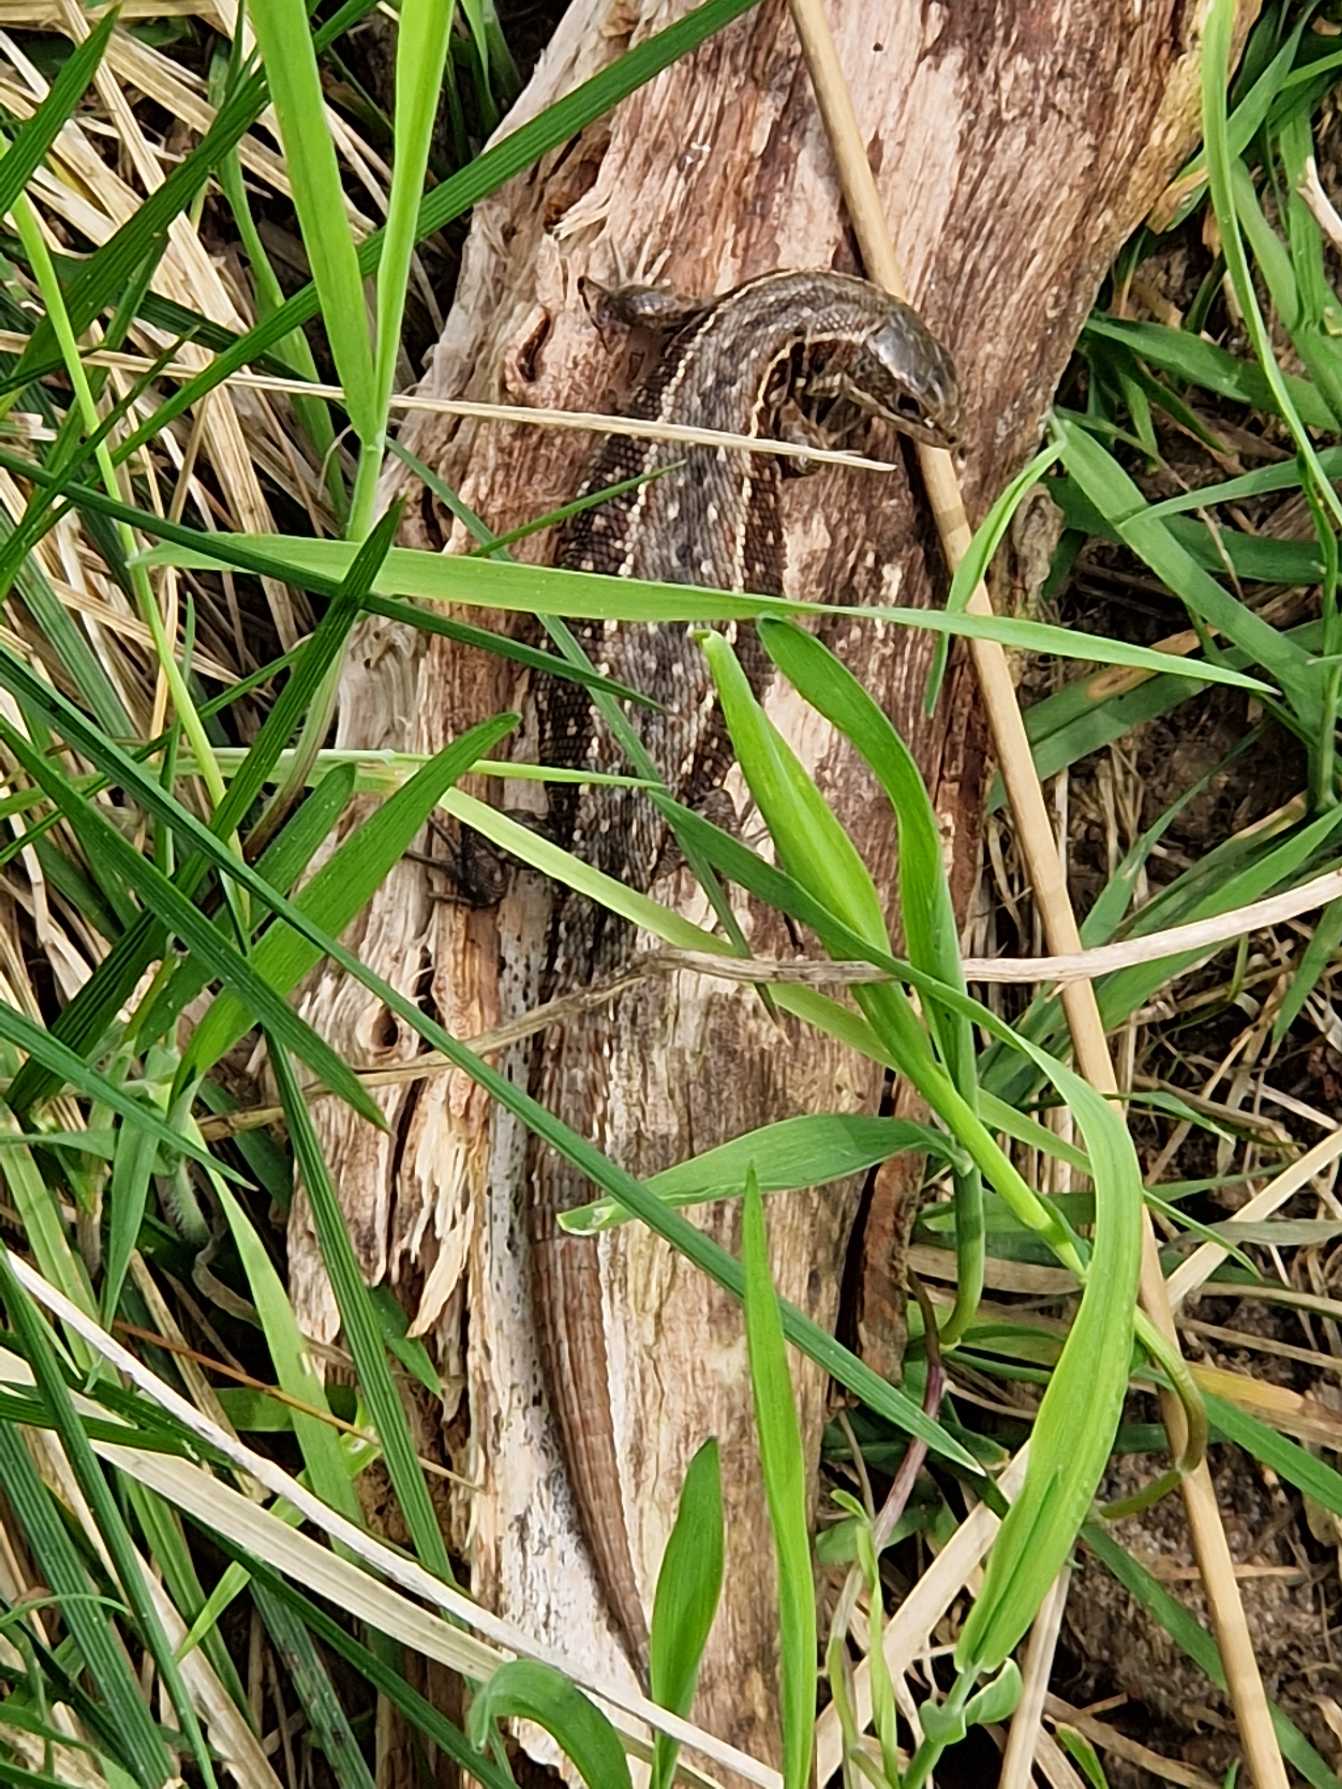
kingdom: Animalia
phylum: Chordata
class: Squamata
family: Lacertidae
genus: Zootoca
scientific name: Zootoca vivipara
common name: Skovfirben
